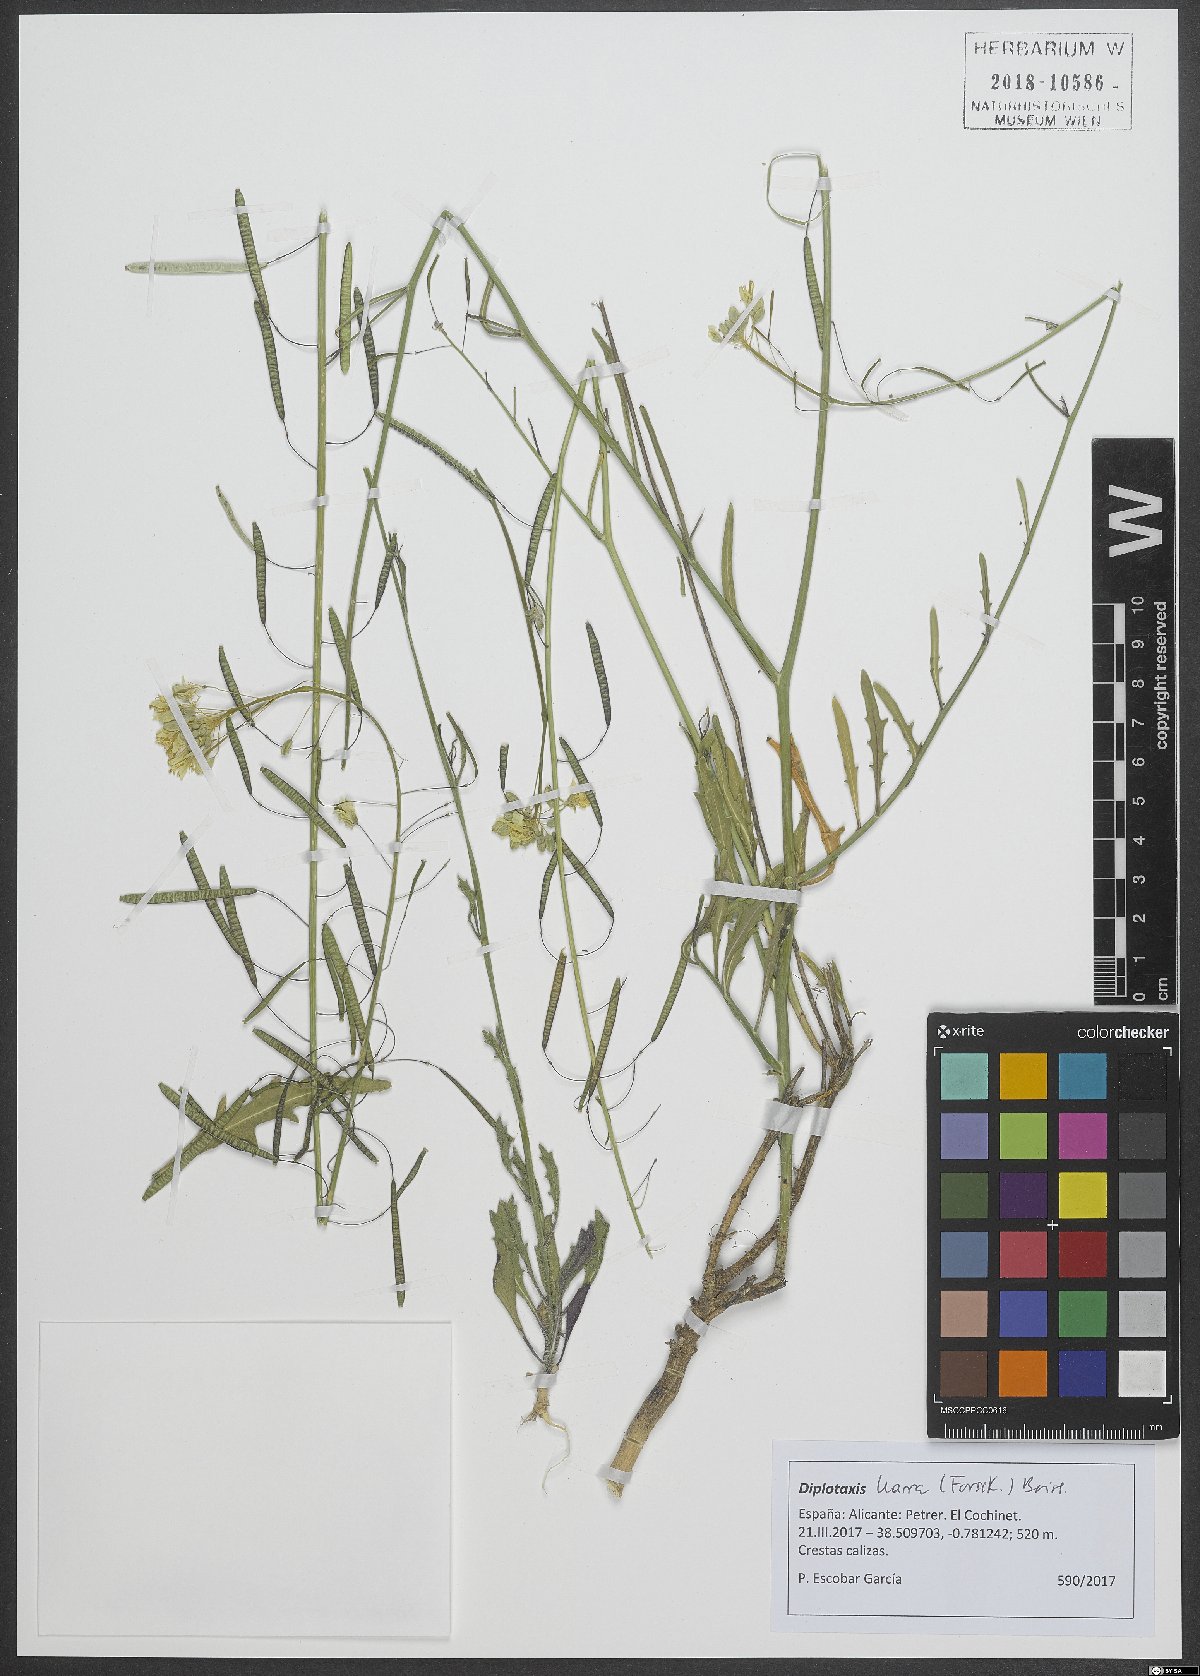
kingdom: Plantae
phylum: Tracheophyta
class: Magnoliopsida
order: Brassicales
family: Brassicaceae
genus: Diplotaxis
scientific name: Diplotaxis harra
